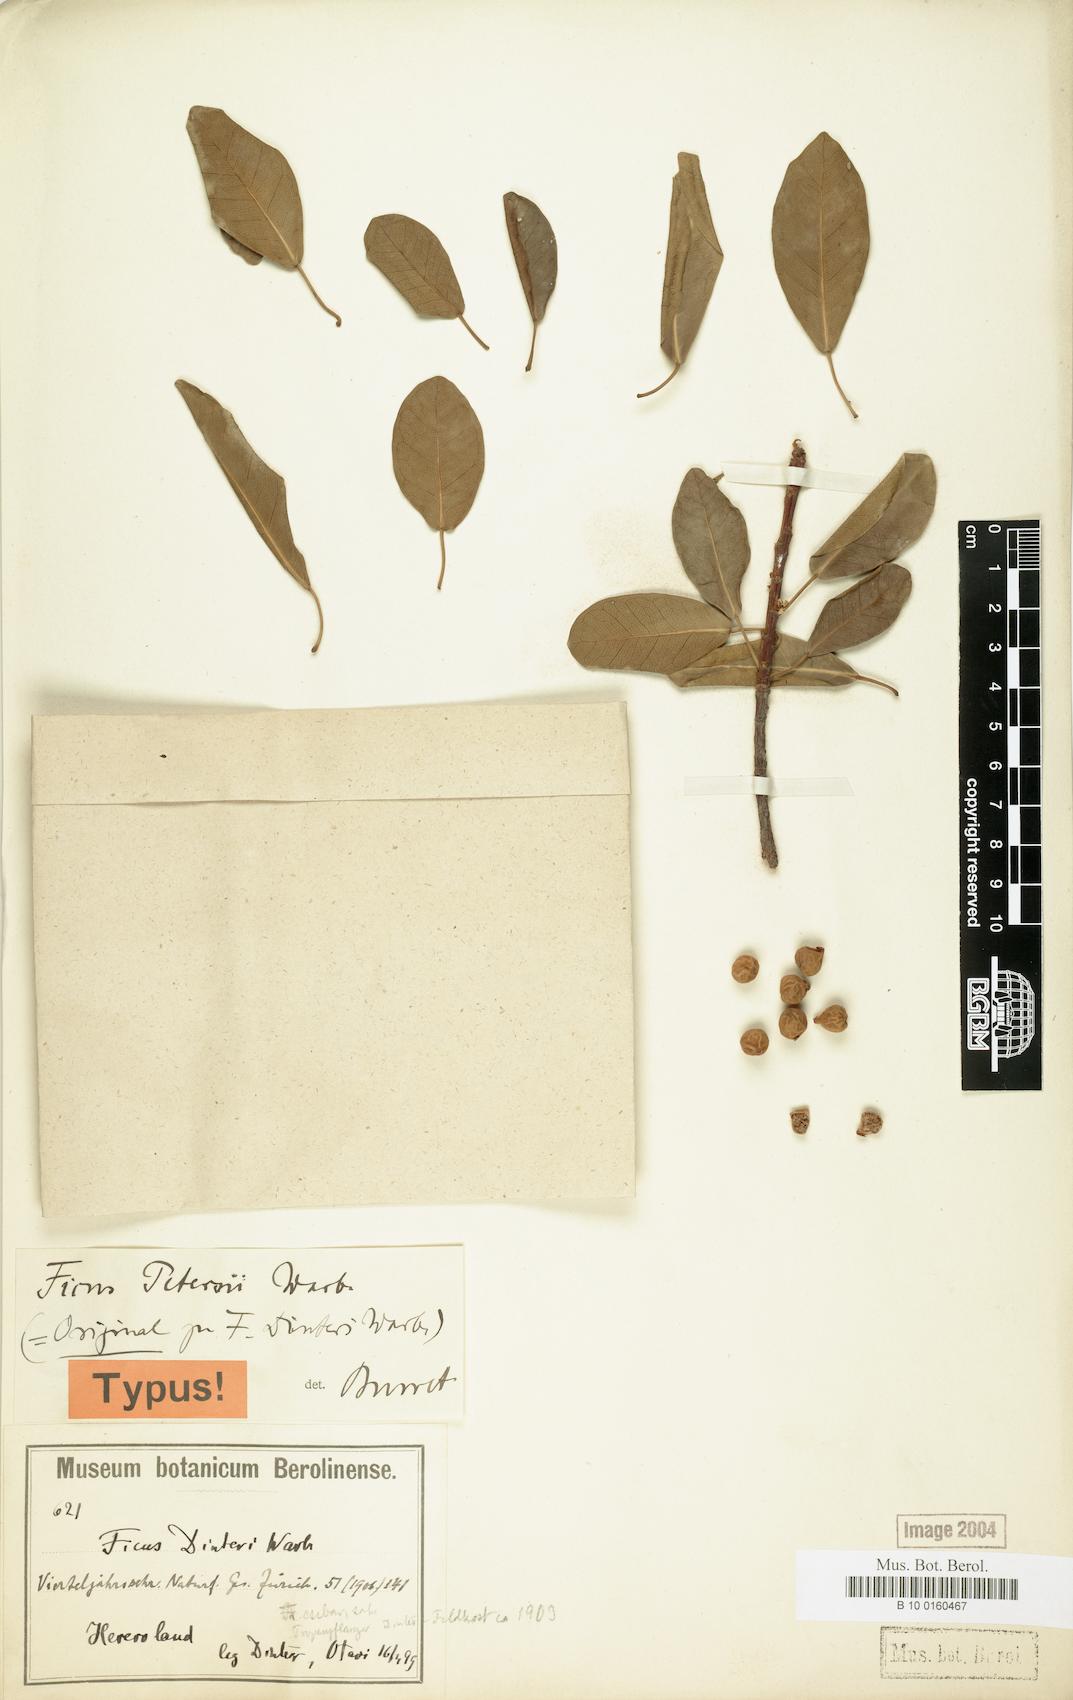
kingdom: Plantae
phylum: Tracheophyta
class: Magnoliopsida
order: Rosales
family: Moraceae
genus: Ficus
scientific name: Ficus petersii
